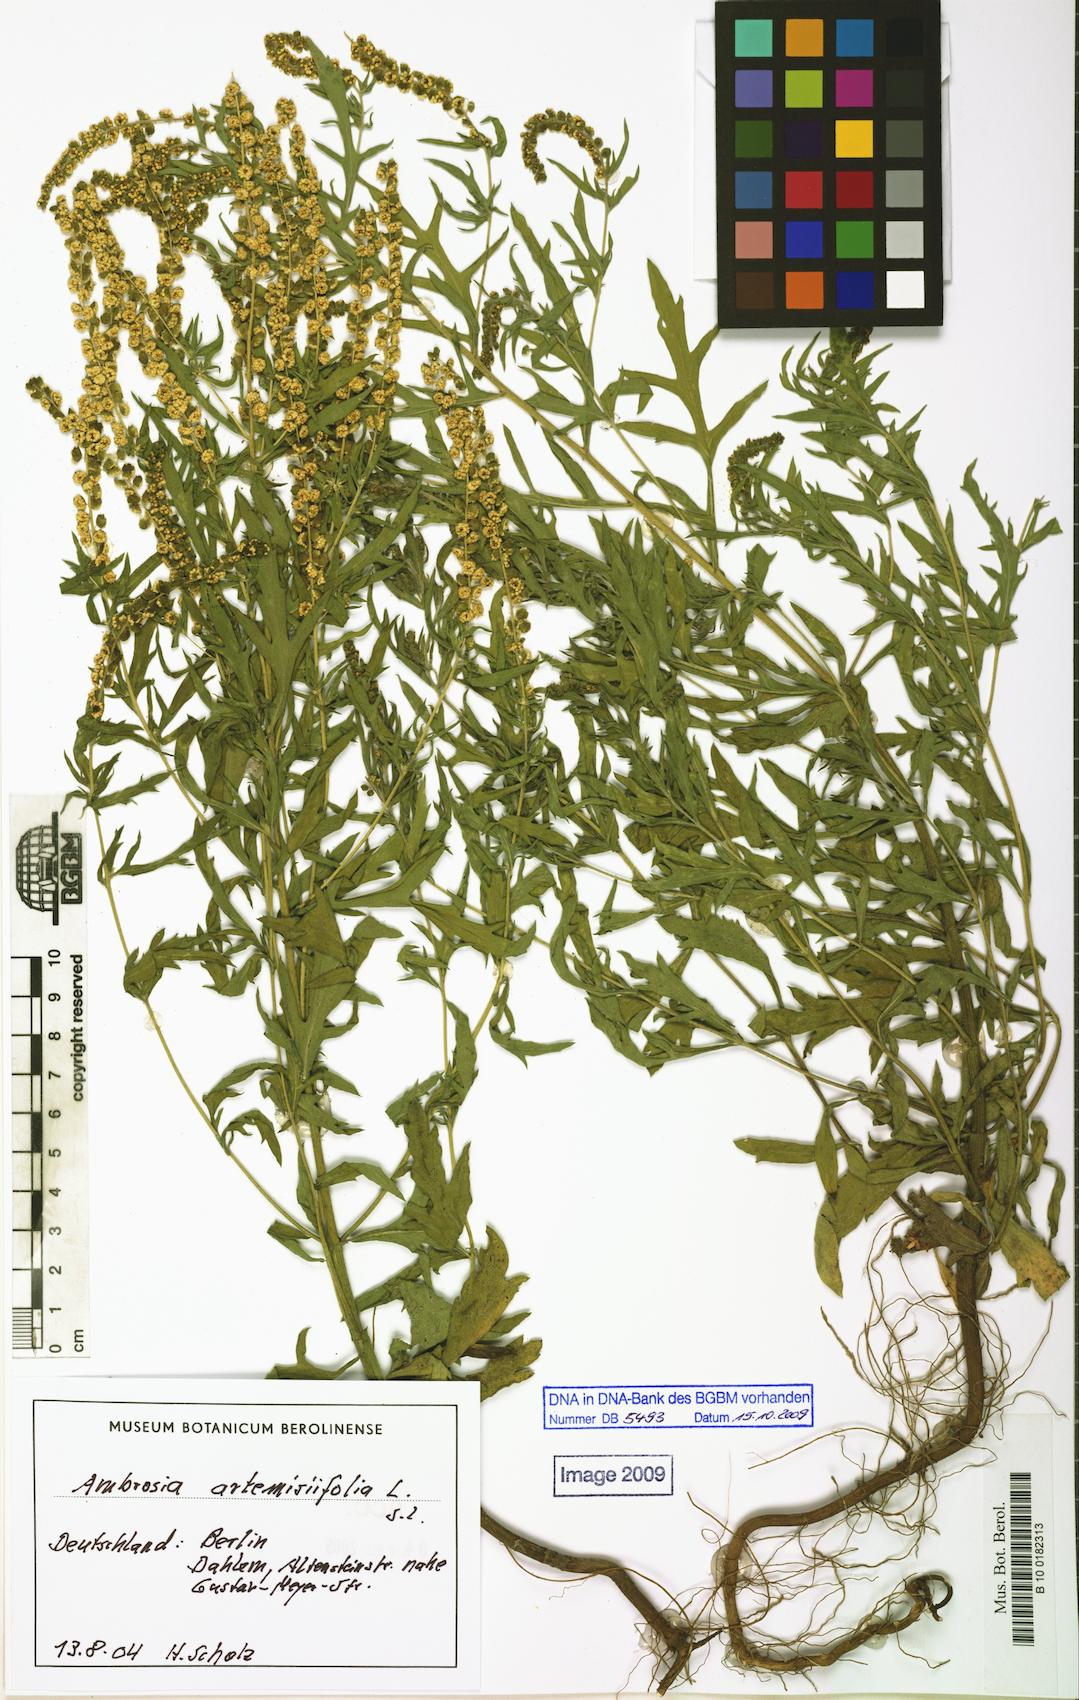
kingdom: Plantae
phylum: Tracheophyta
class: Magnoliopsida
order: Asterales
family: Asteraceae
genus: Ambrosia
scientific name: Ambrosia artemisiifolia
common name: Annual ragweed
